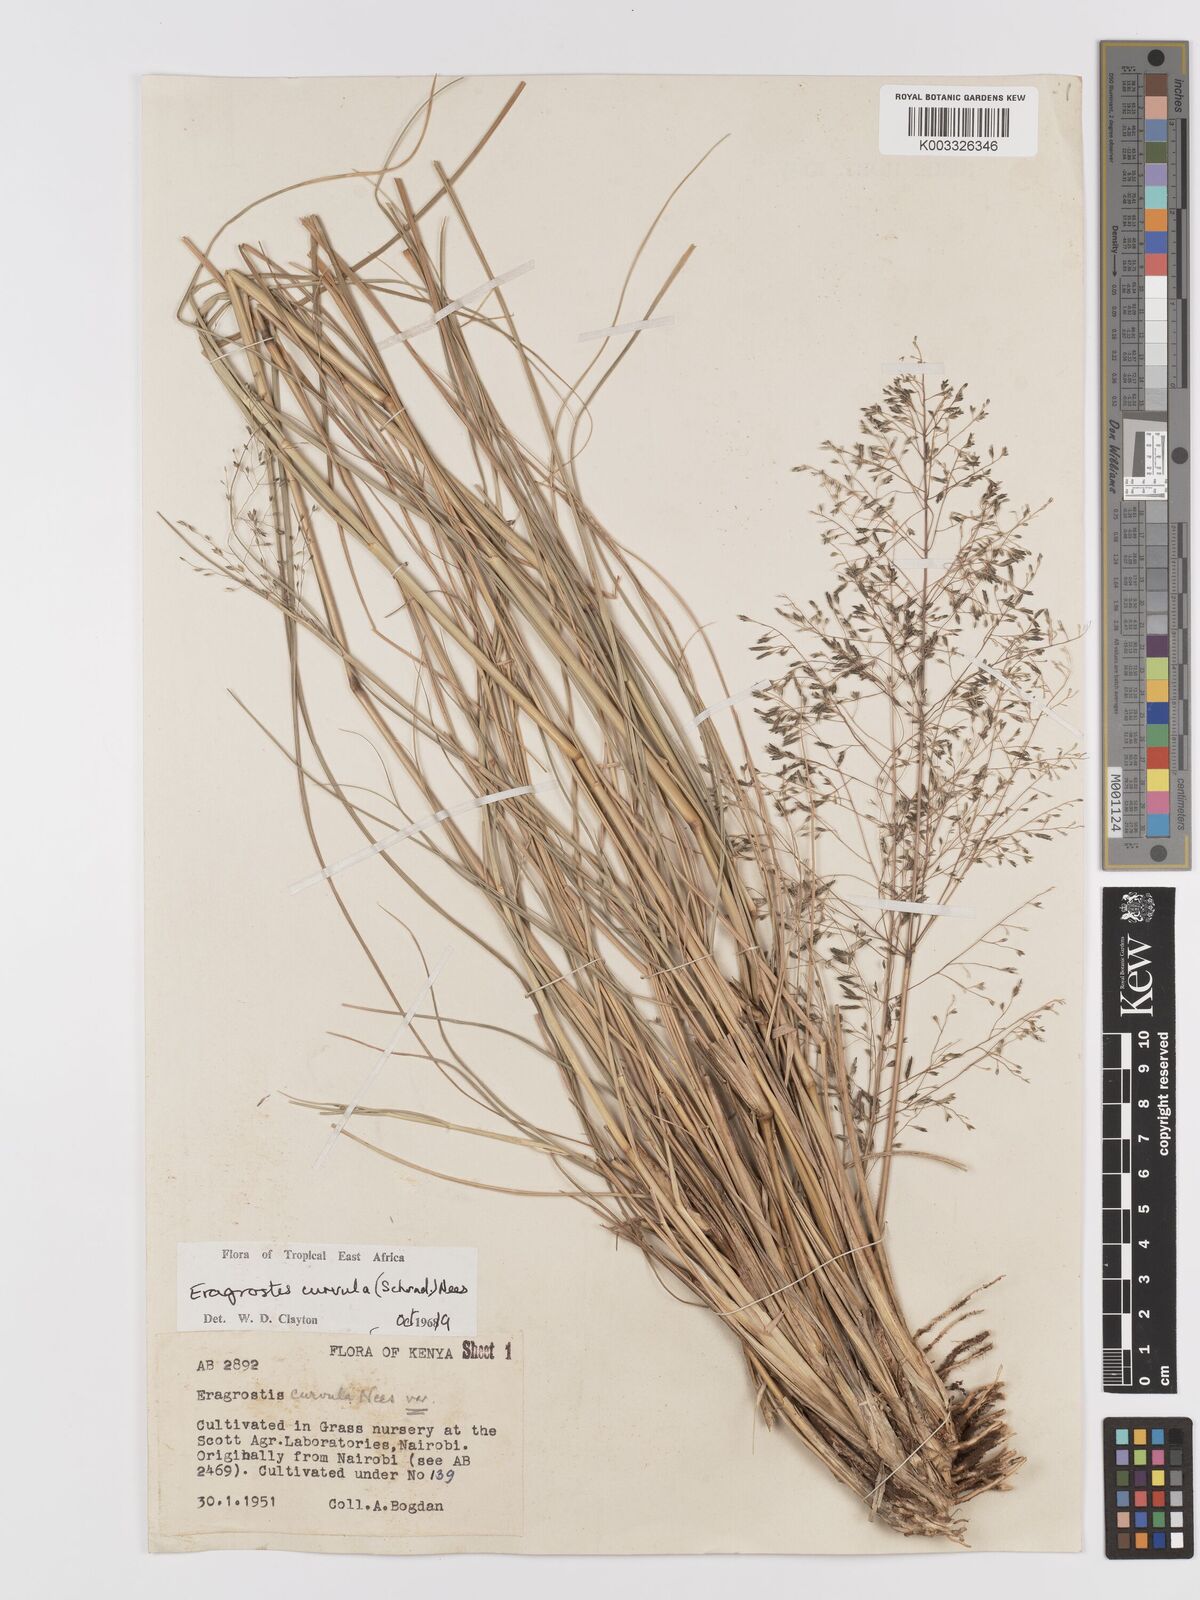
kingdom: Plantae
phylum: Tracheophyta
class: Liliopsida
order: Poales
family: Poaceae
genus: Eragrostis
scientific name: Eragrostis curvula
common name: African love-grass
